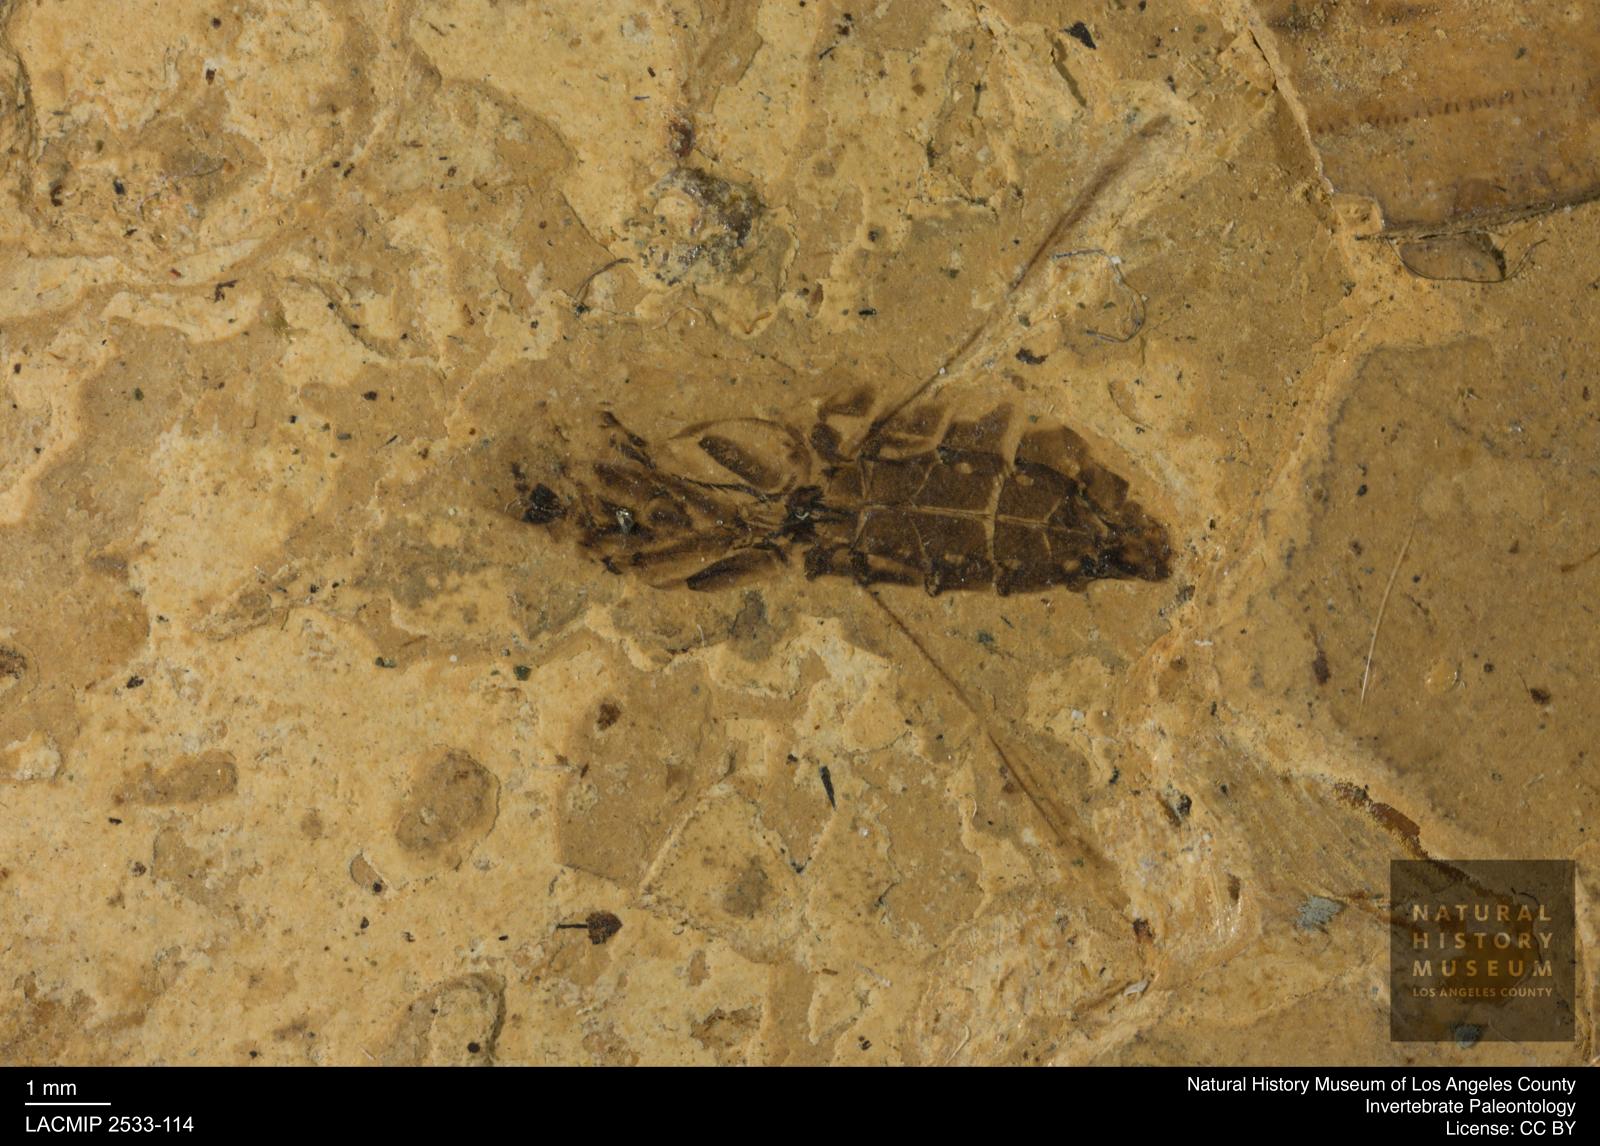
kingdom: Animalia
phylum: Arthropoda
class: Insecta
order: Hemiptera
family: Notonectidae
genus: Anisops
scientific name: Anisops Notonecta heydeni
